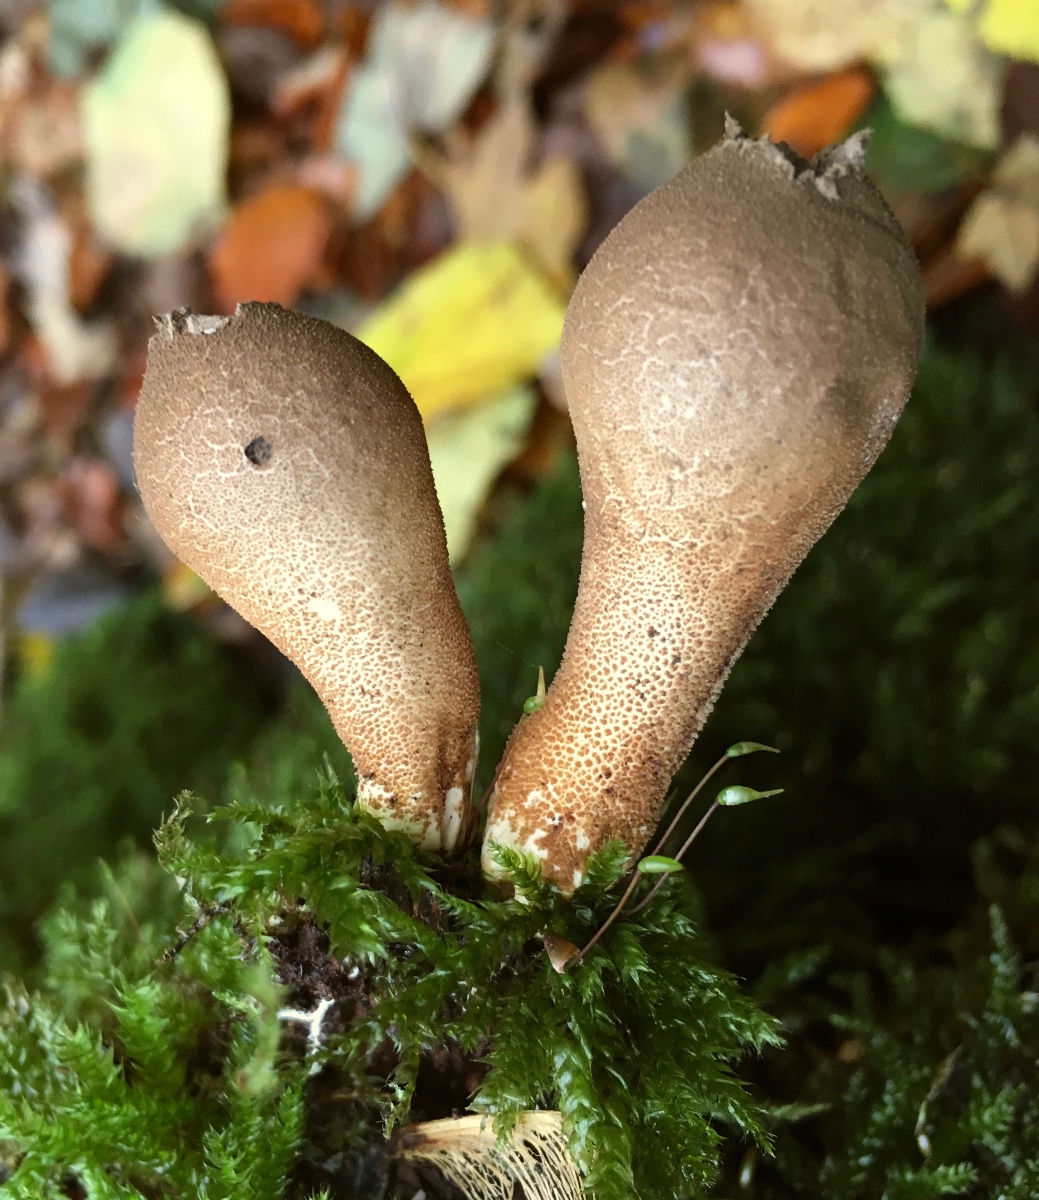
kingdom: Fungi
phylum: Basidiomycota
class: Agaricomycetes
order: Agaricales
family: Lycoperdaceae
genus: Apioperdon
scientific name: Apioperdon pyriforme
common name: pære-støvbold
